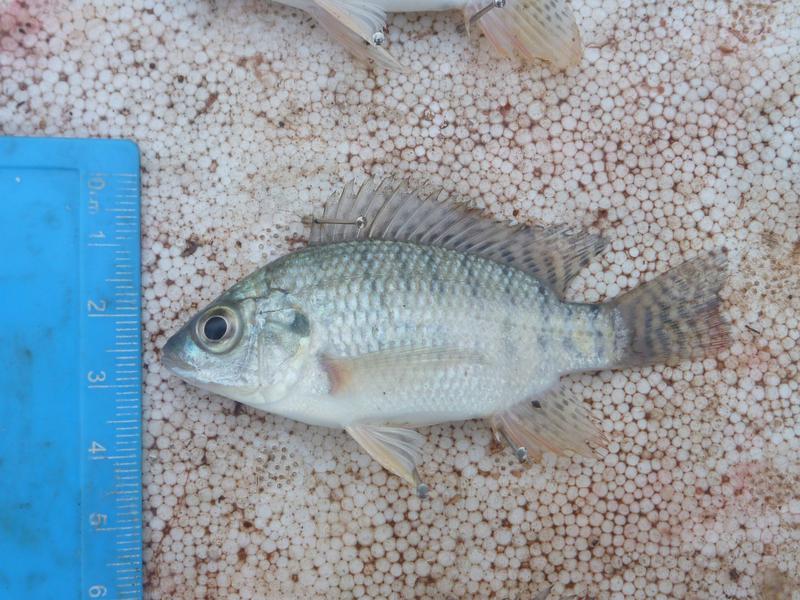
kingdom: Animalia
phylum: Chordata
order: Perciformes
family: Cichlidae
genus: Oreochromis
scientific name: Oreochromis niloticus
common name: Nile tilapia
